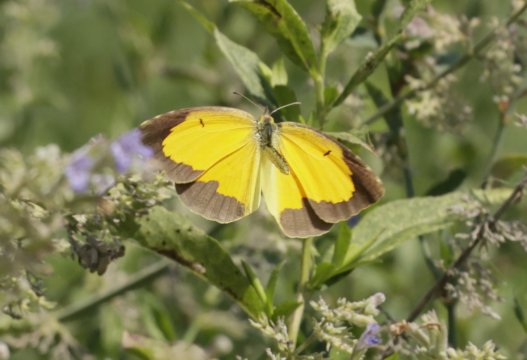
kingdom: Animalia
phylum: Arthropoda
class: Insecta
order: Lepidoptera
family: Pieridae
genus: Abaeis
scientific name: Abaeis nicippe
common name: Sleepy Orange
